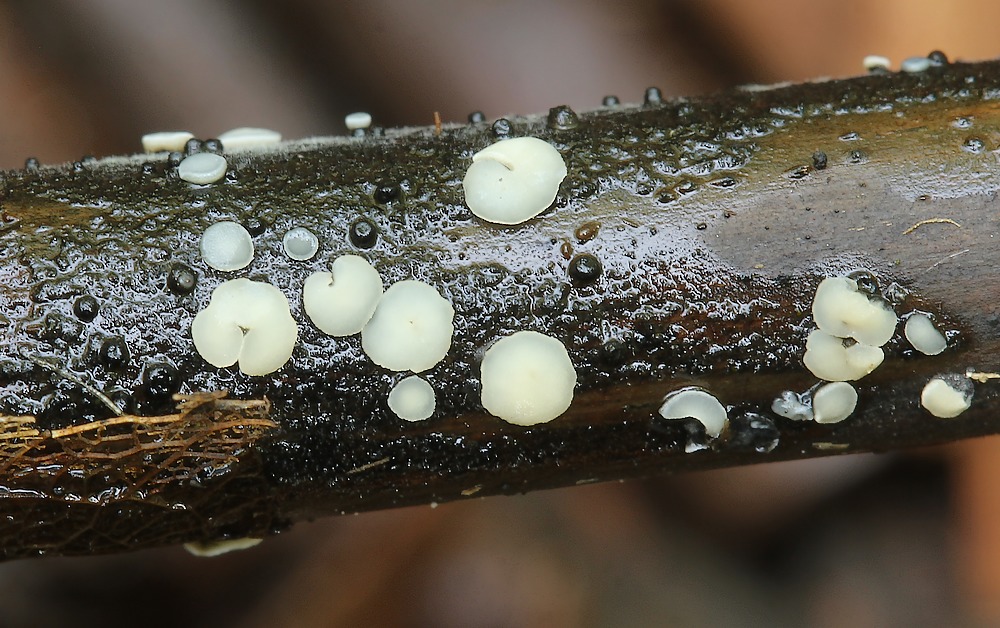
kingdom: Fungi
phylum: Ascomycota
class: Leotiomycetes
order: Helotiales
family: Dermateaceae
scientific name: Dermateaceae
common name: gråskivefamilien
